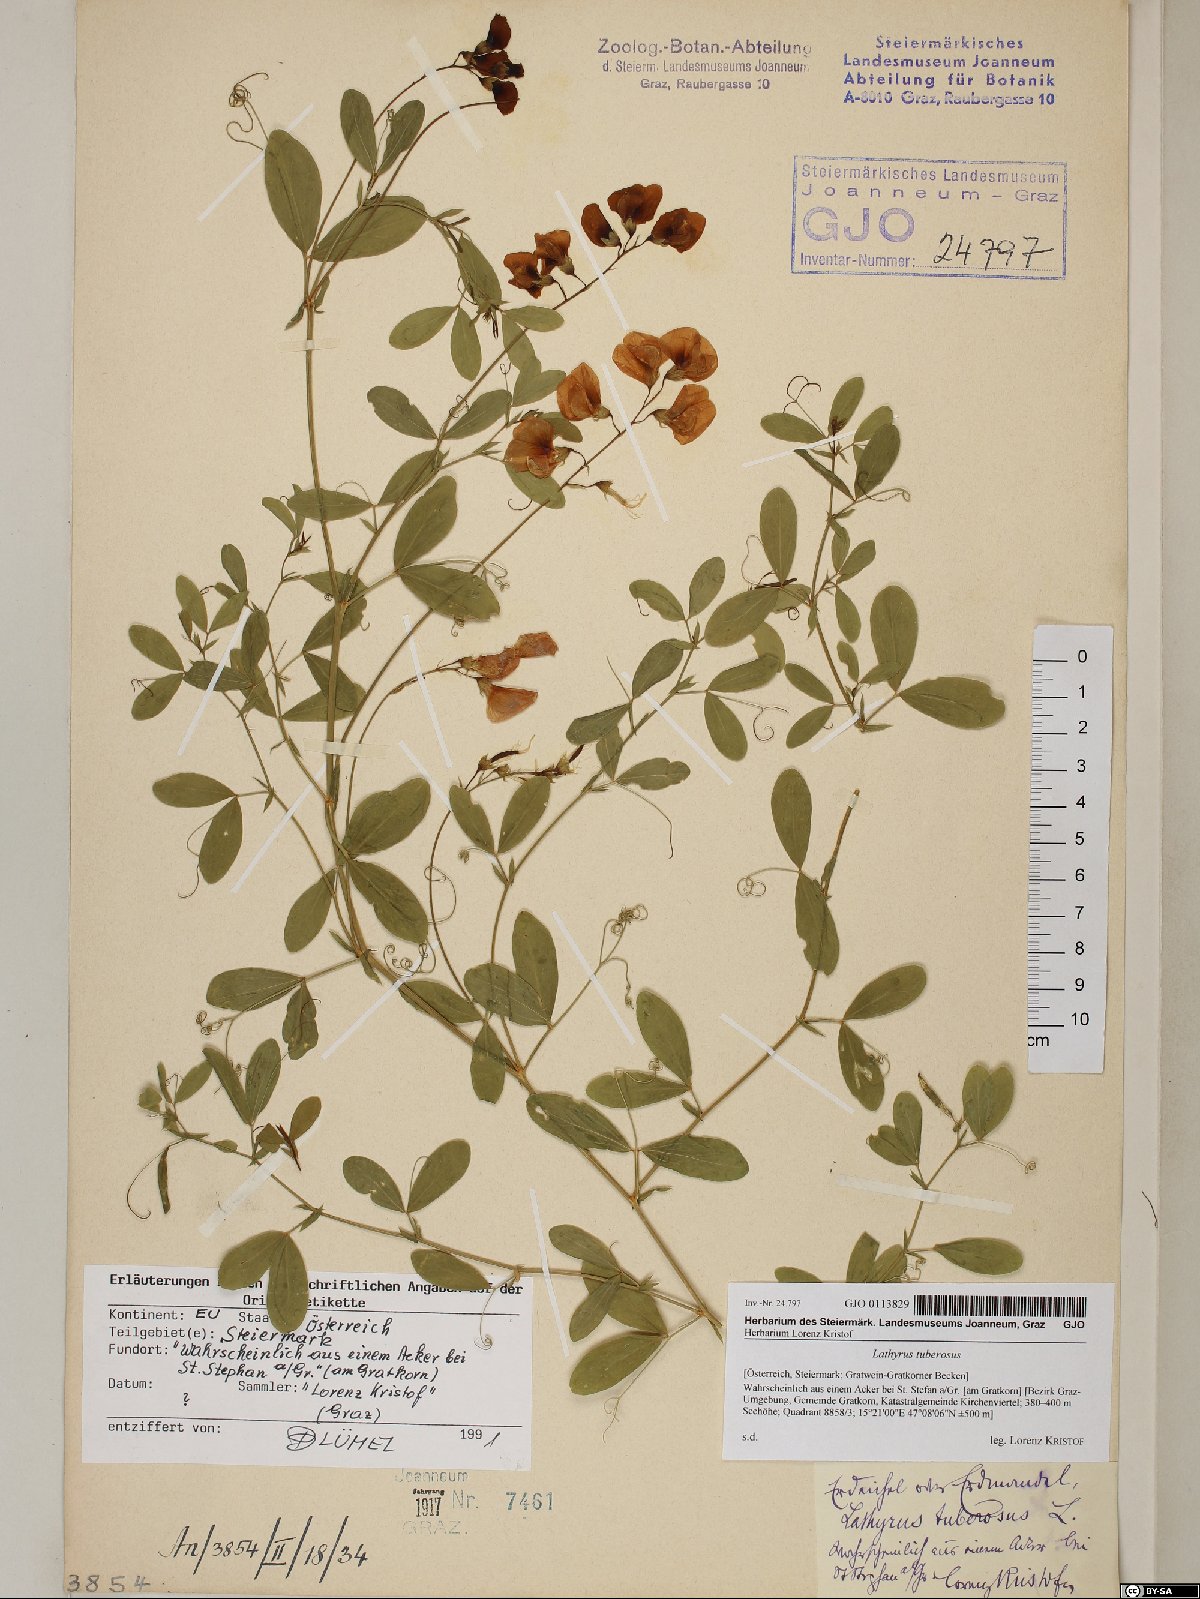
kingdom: Plantae
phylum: Tracheophyta
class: Magnoliopsida
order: Fabales
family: Fabaceae
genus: Lathyrus
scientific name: Lathyrus tuberosus
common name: Tuberous pea
